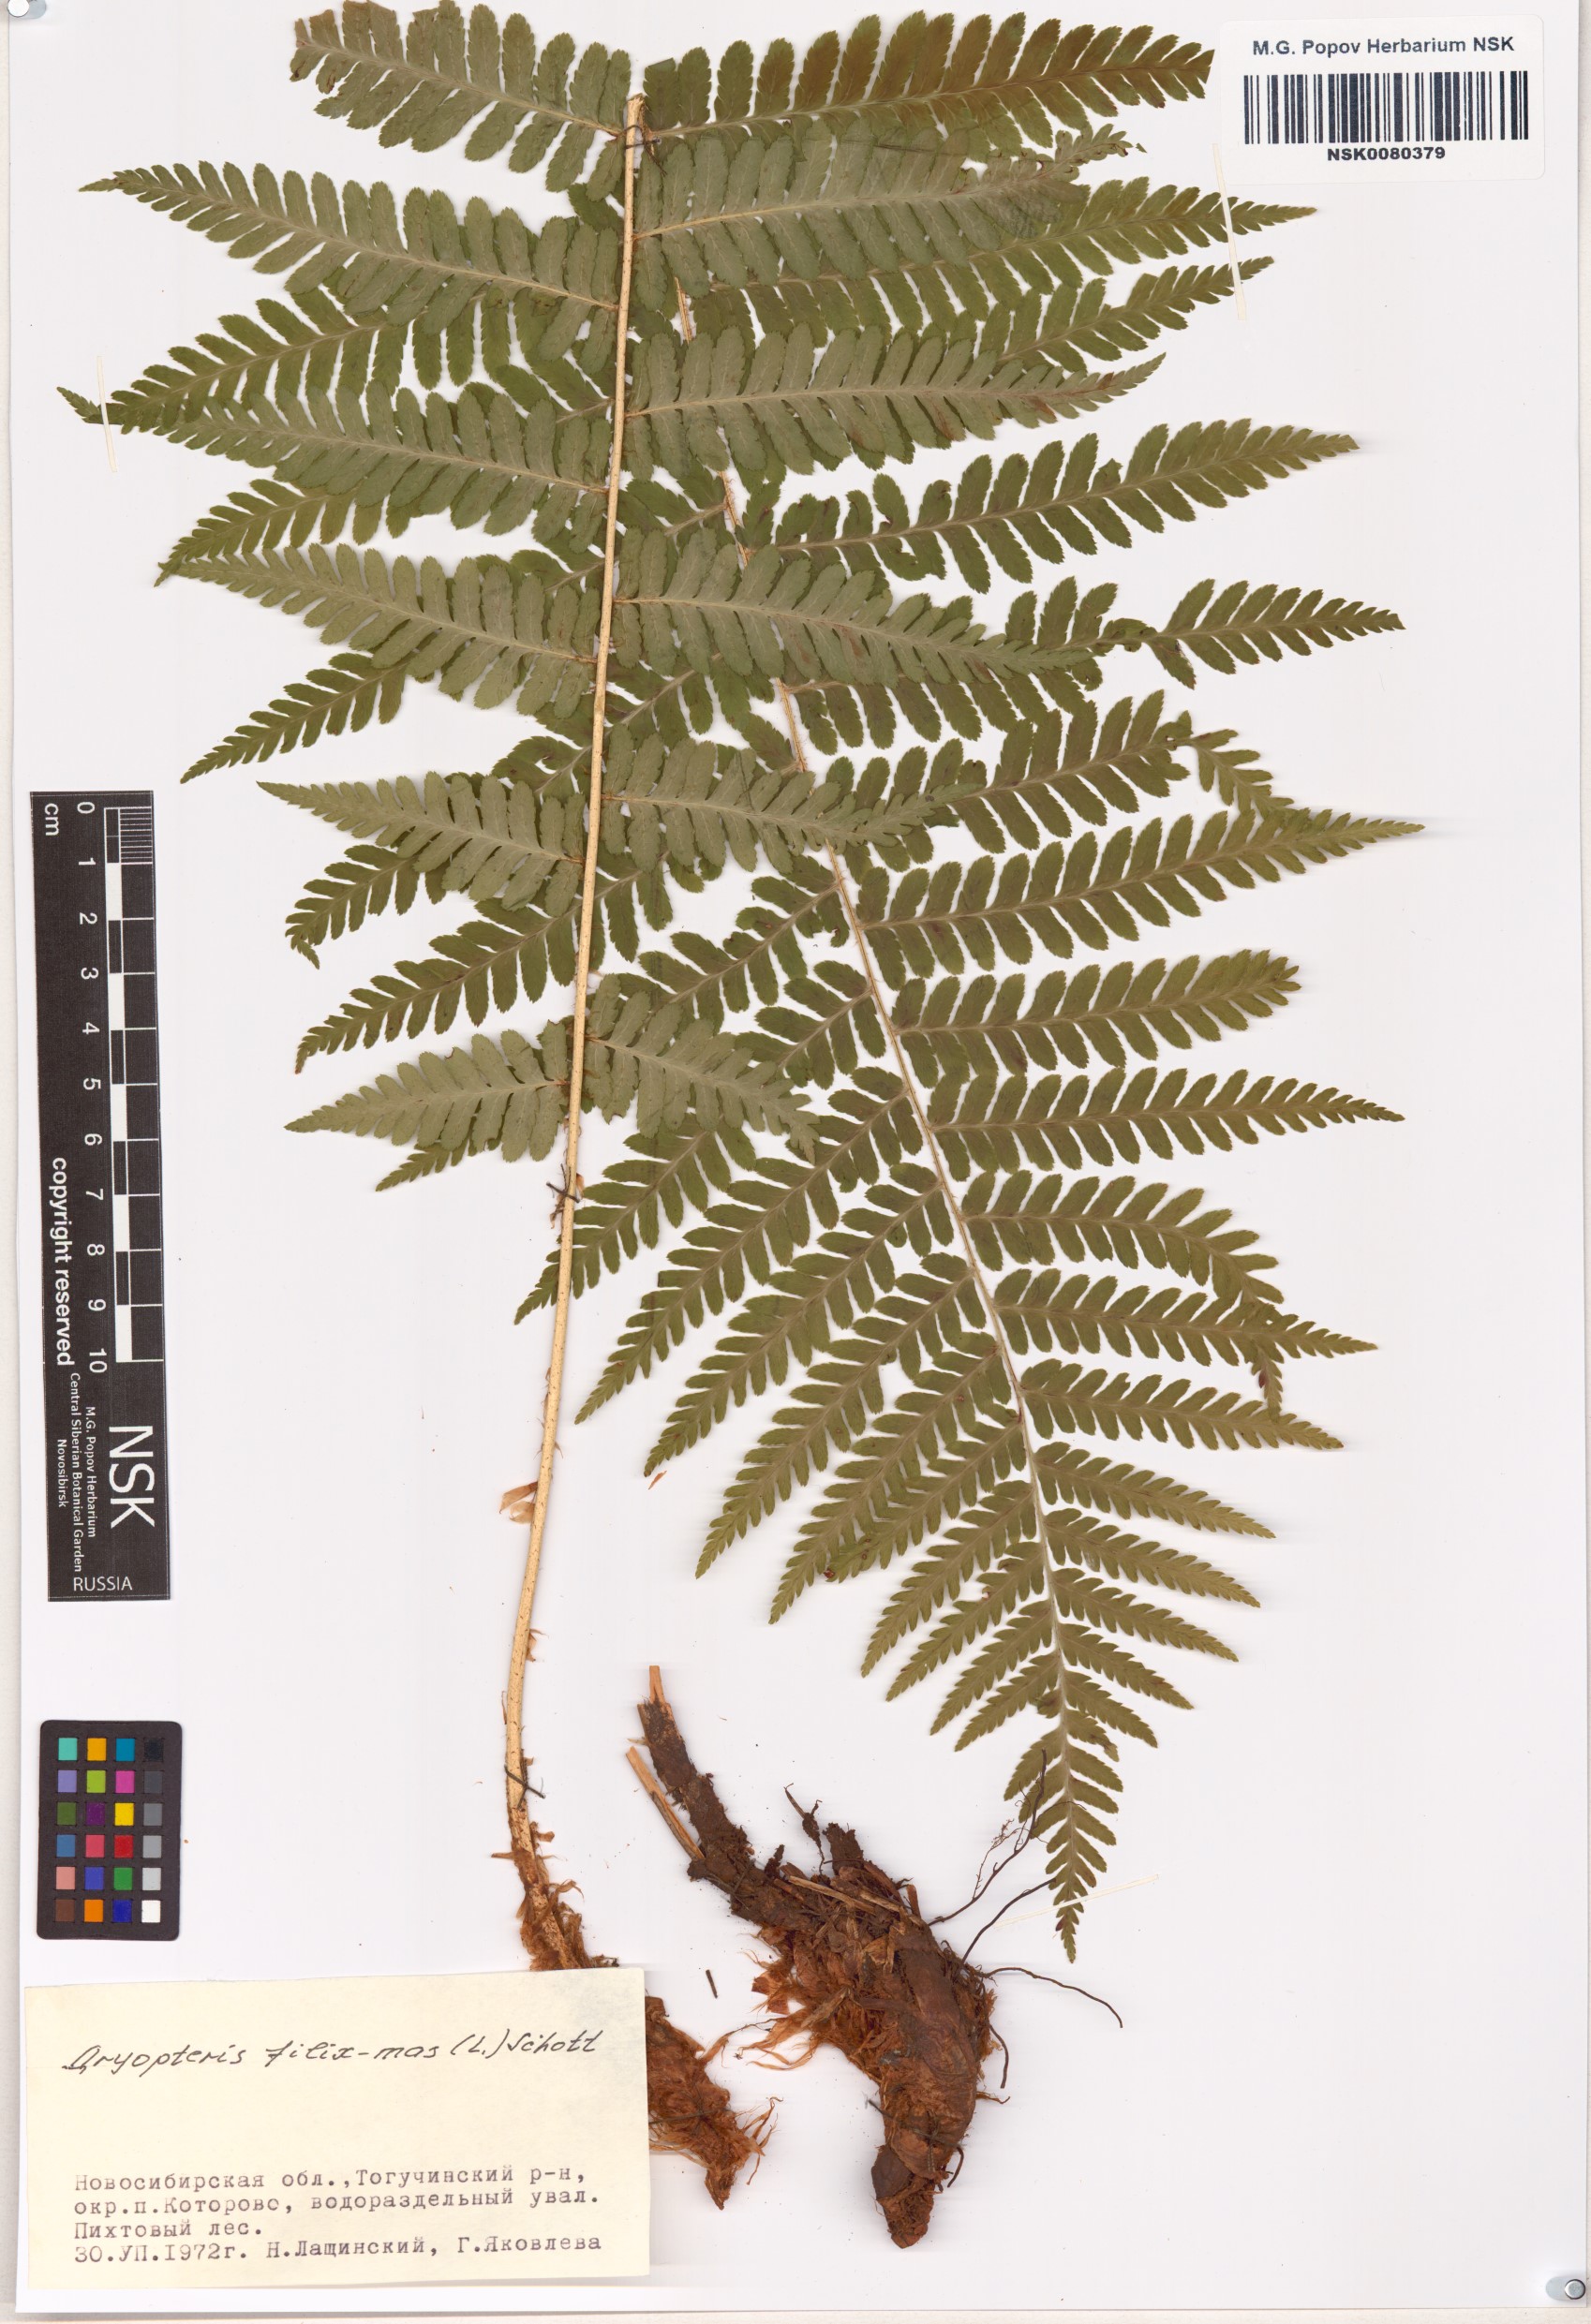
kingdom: Plantae
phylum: Tracheophyta
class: Polypodiopsida
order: Polypodiales
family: Dryopteridaceae
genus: Dryopteris
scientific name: Dryopteris filix-mas
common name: Male fern
